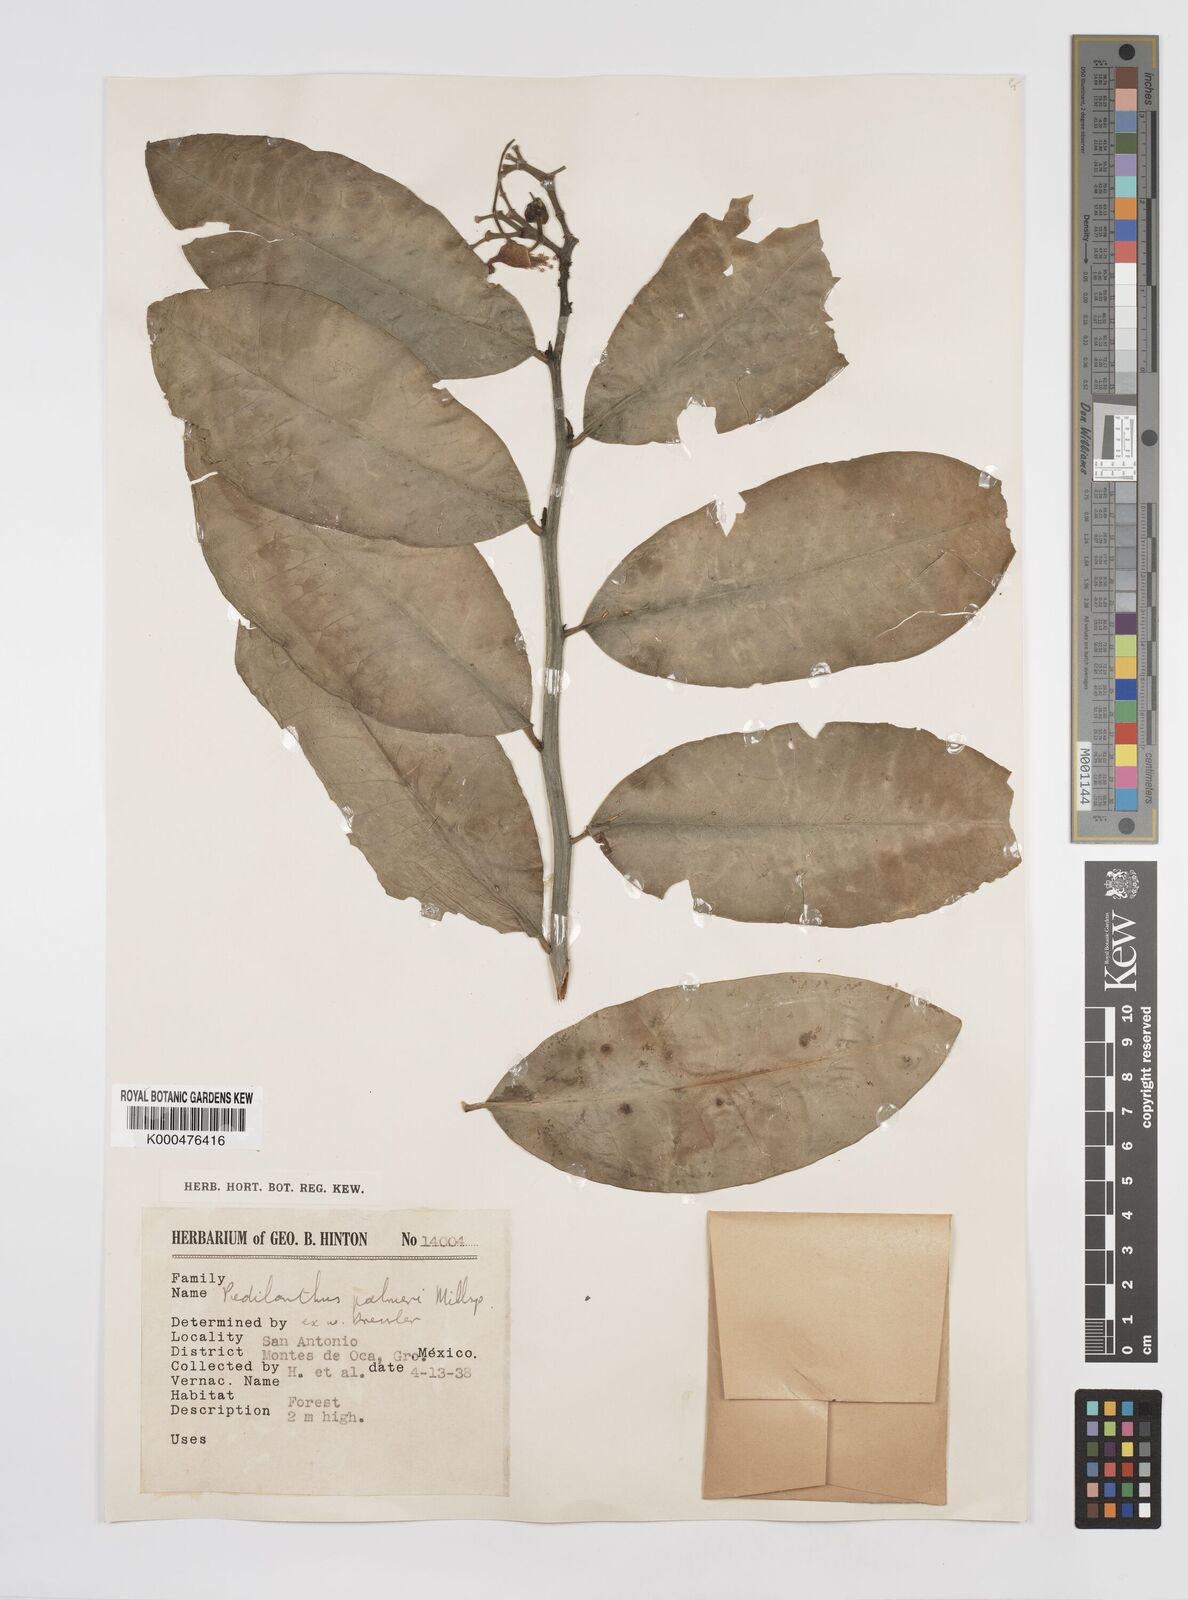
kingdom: Plantae
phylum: Tracheophyta
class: Magnoliopsida
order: Malpighiales
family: Euphorbiaceae
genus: Euphorbia
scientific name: Euphorbia peritropoides
